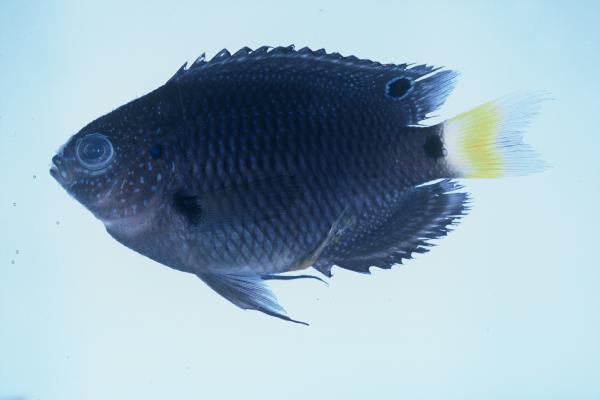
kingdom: Animalia
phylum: Chordata
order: Perciformes
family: Pomacentridae
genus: Pomacentrus
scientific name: Pomacentrus trichrourus
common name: Paletail damsel
